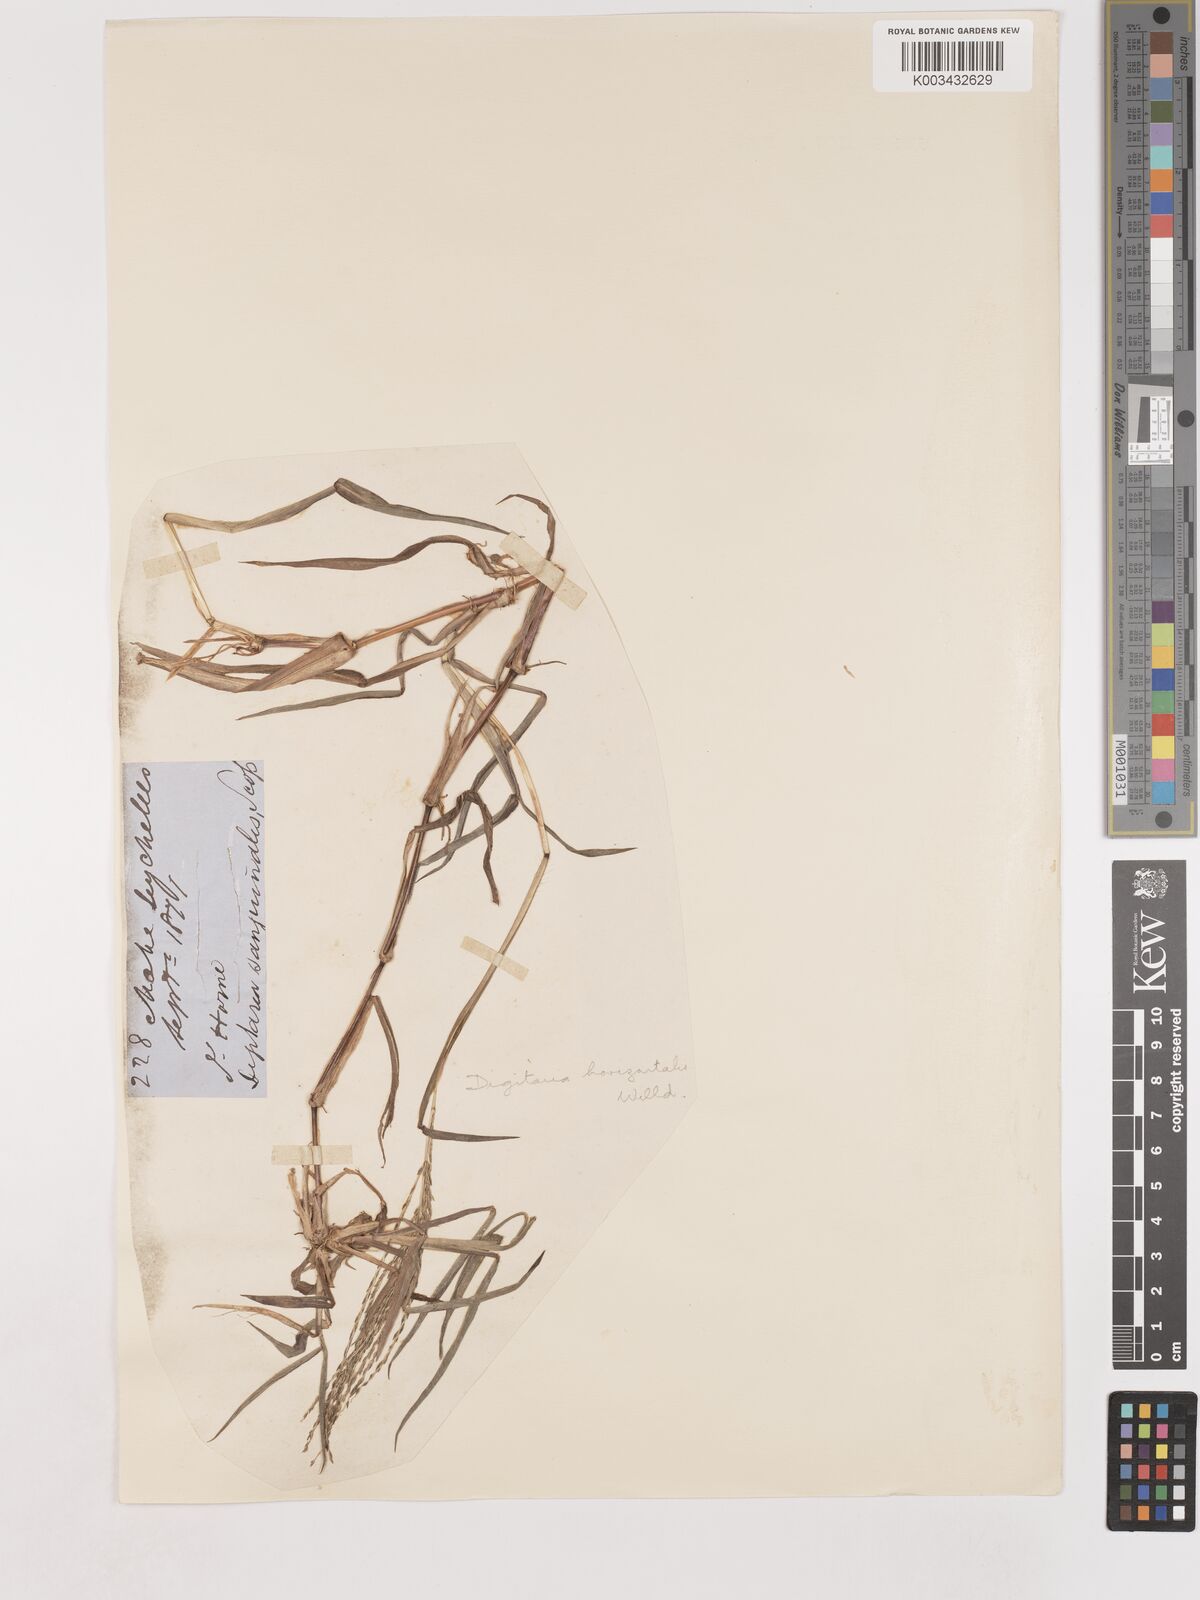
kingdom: Plantae
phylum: Tracheophyta
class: Liliopsida
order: Poales
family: Poaceae
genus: Digitaria
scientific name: Digitaria horizontalis
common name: Jamaican crabgrass
